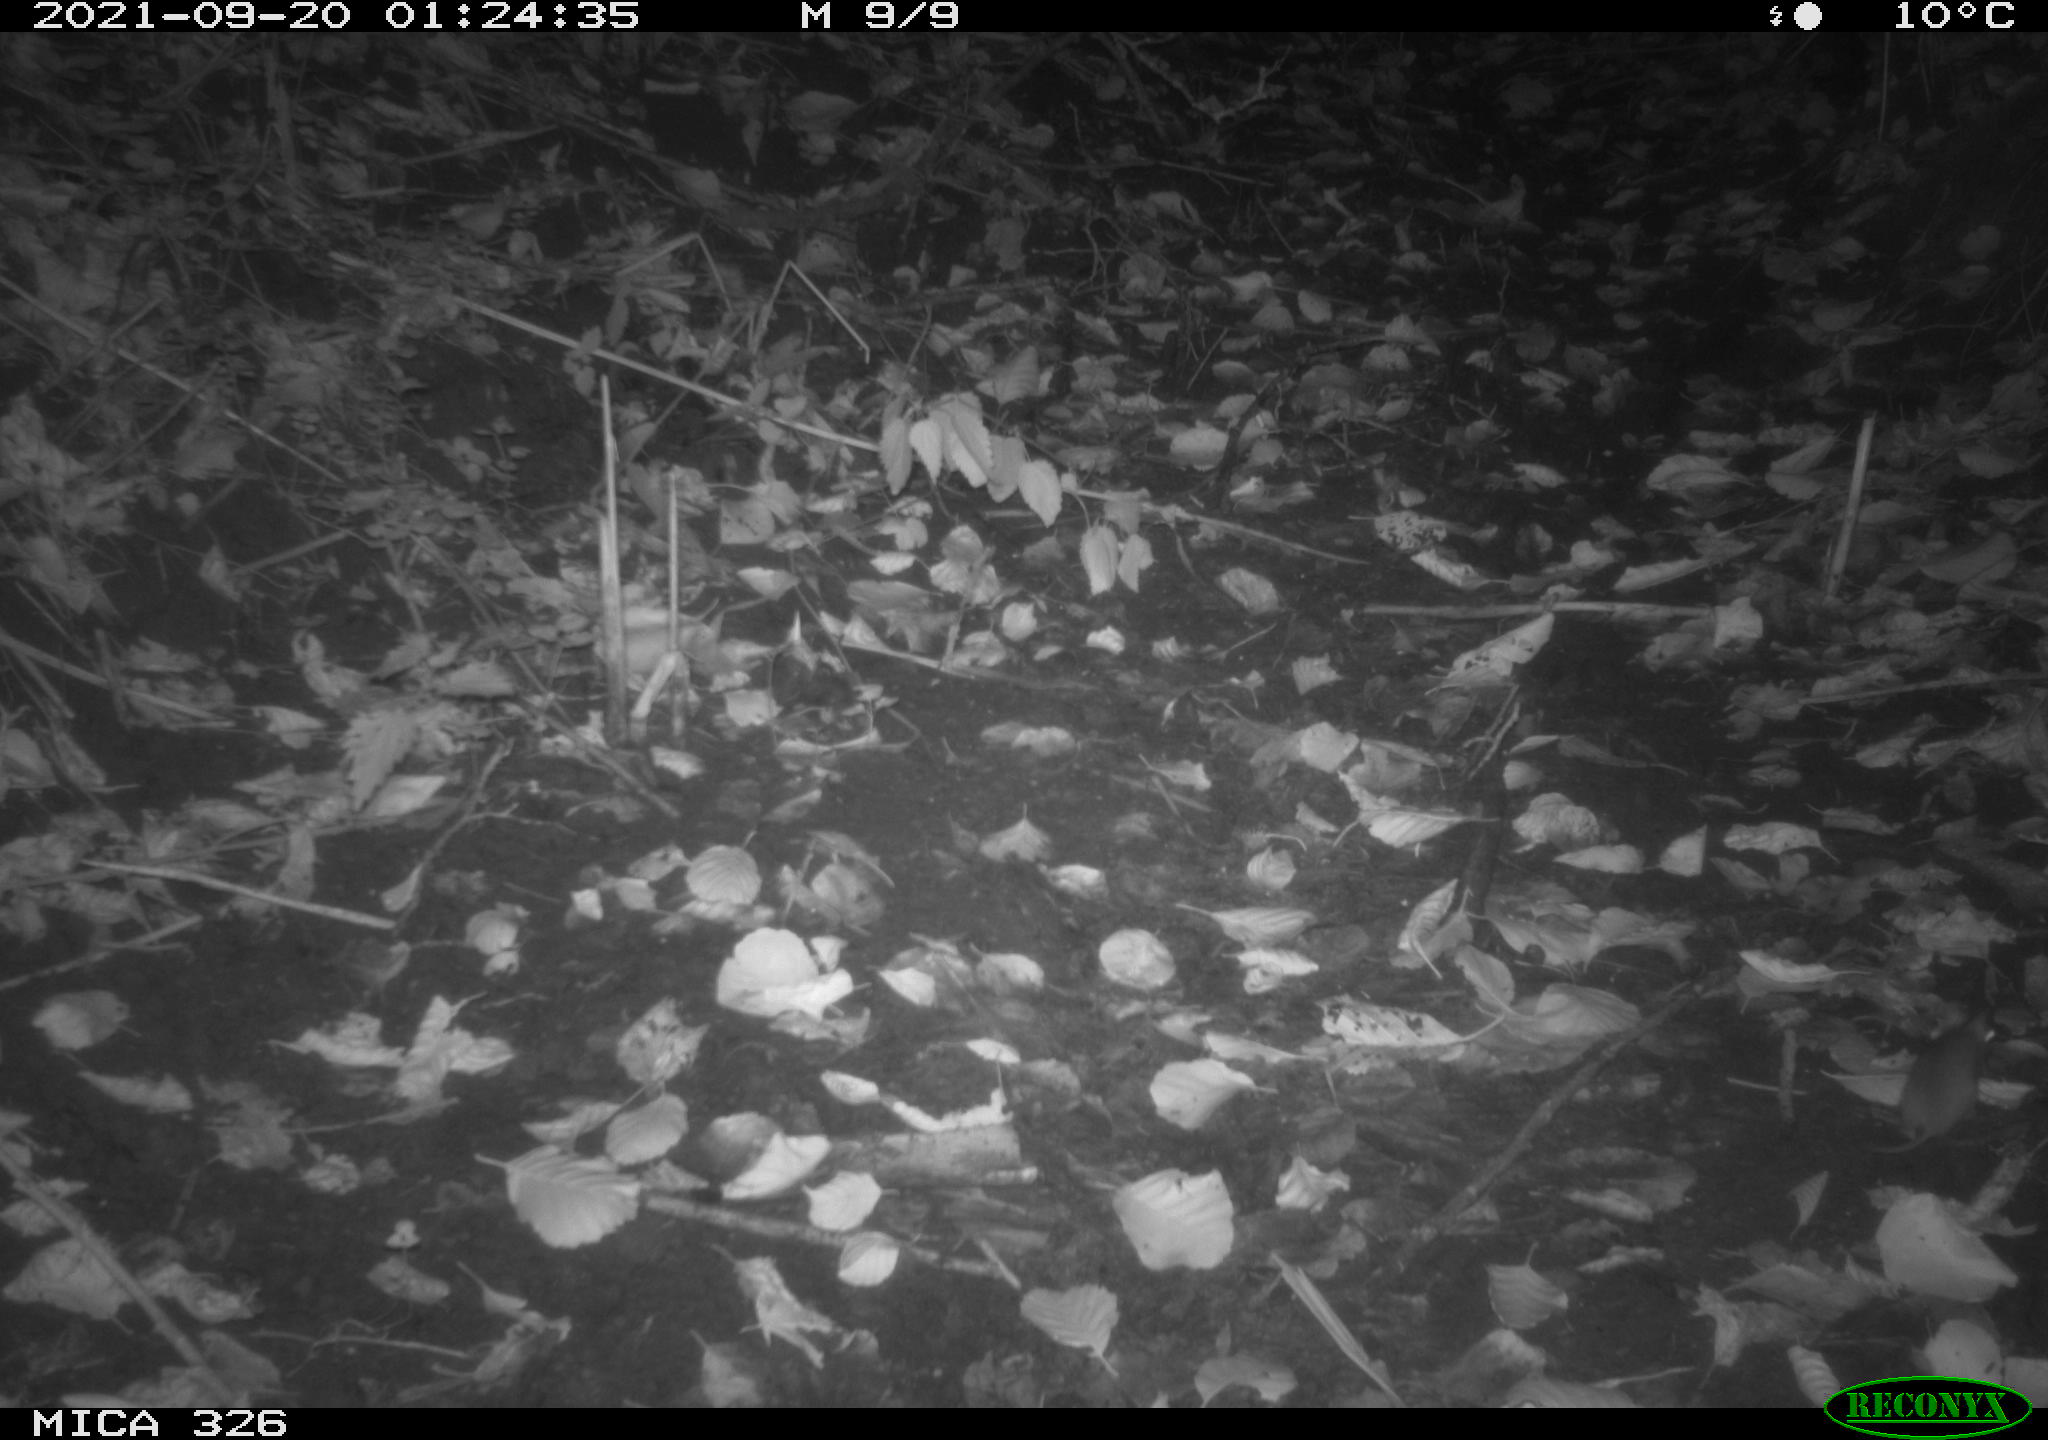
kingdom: Animalia
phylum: Chordata
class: Mammalia
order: Rodentia
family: Muridae
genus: Rattus
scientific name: Rattus norvegicus
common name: Brown rat
